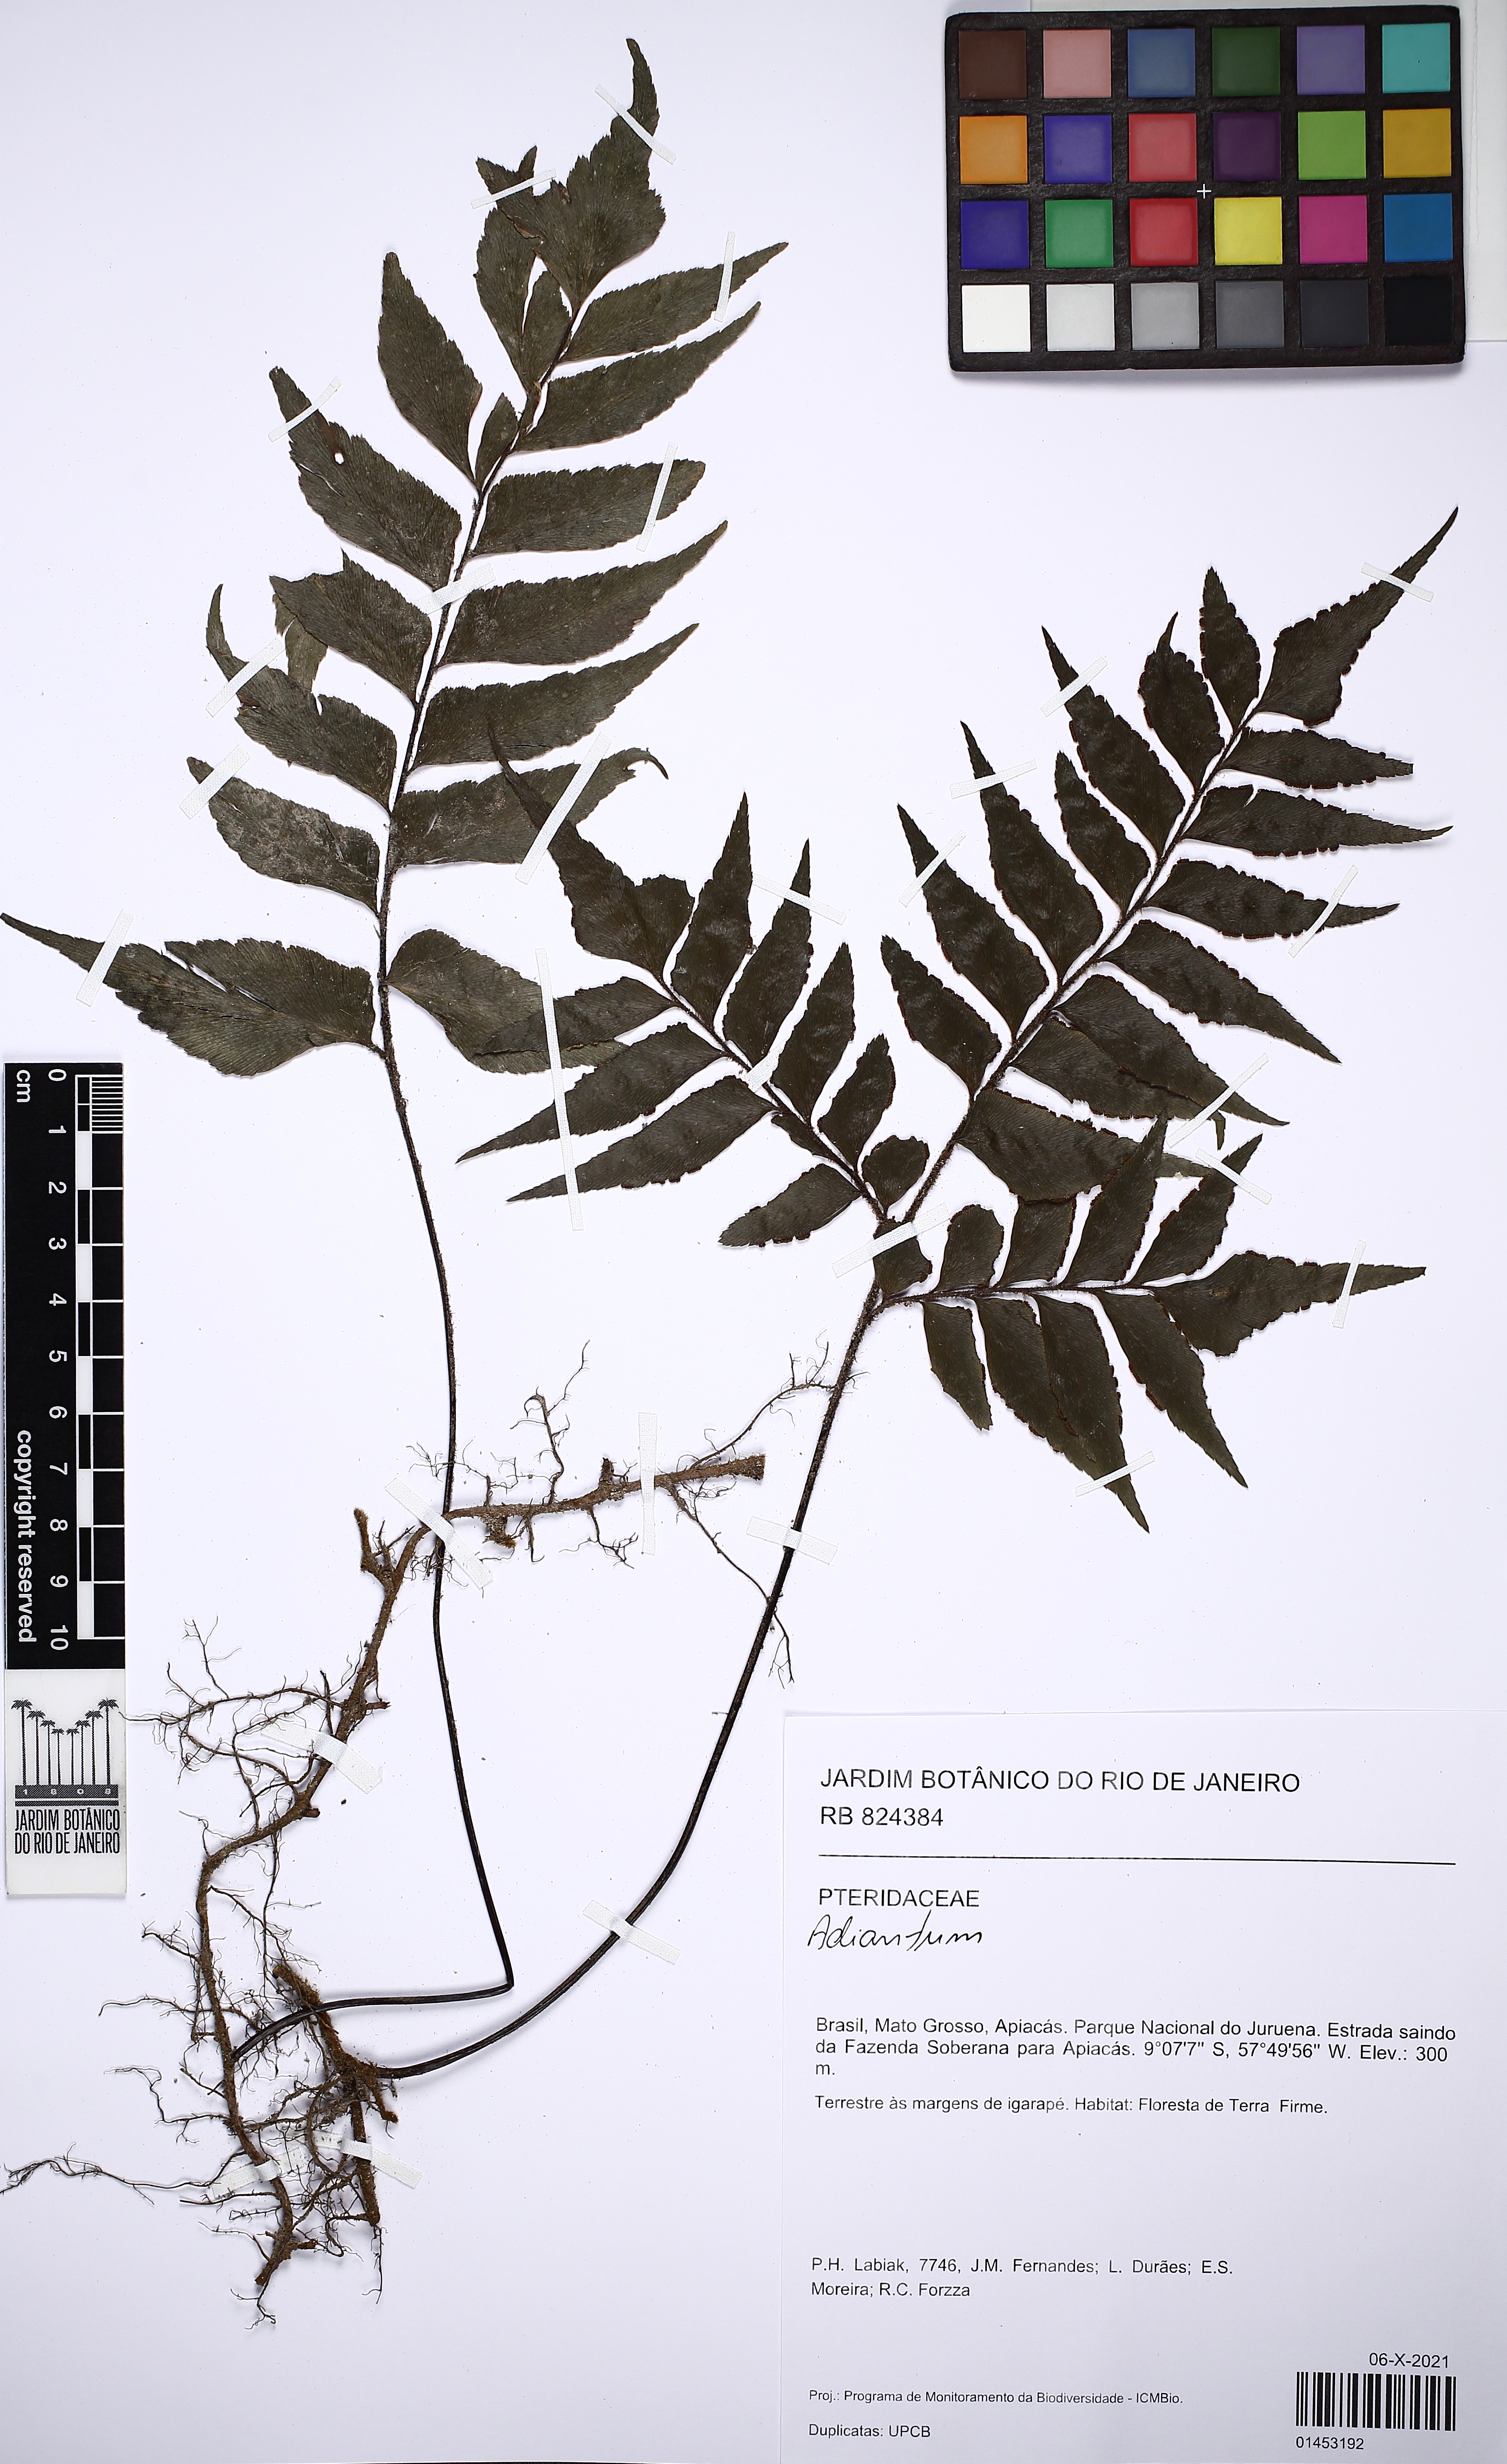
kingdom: Plantae
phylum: Tracheophyta
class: Polypodiopsida
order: Polypodiales
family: Pteridaceae
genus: Adiantum
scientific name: Adiantum
